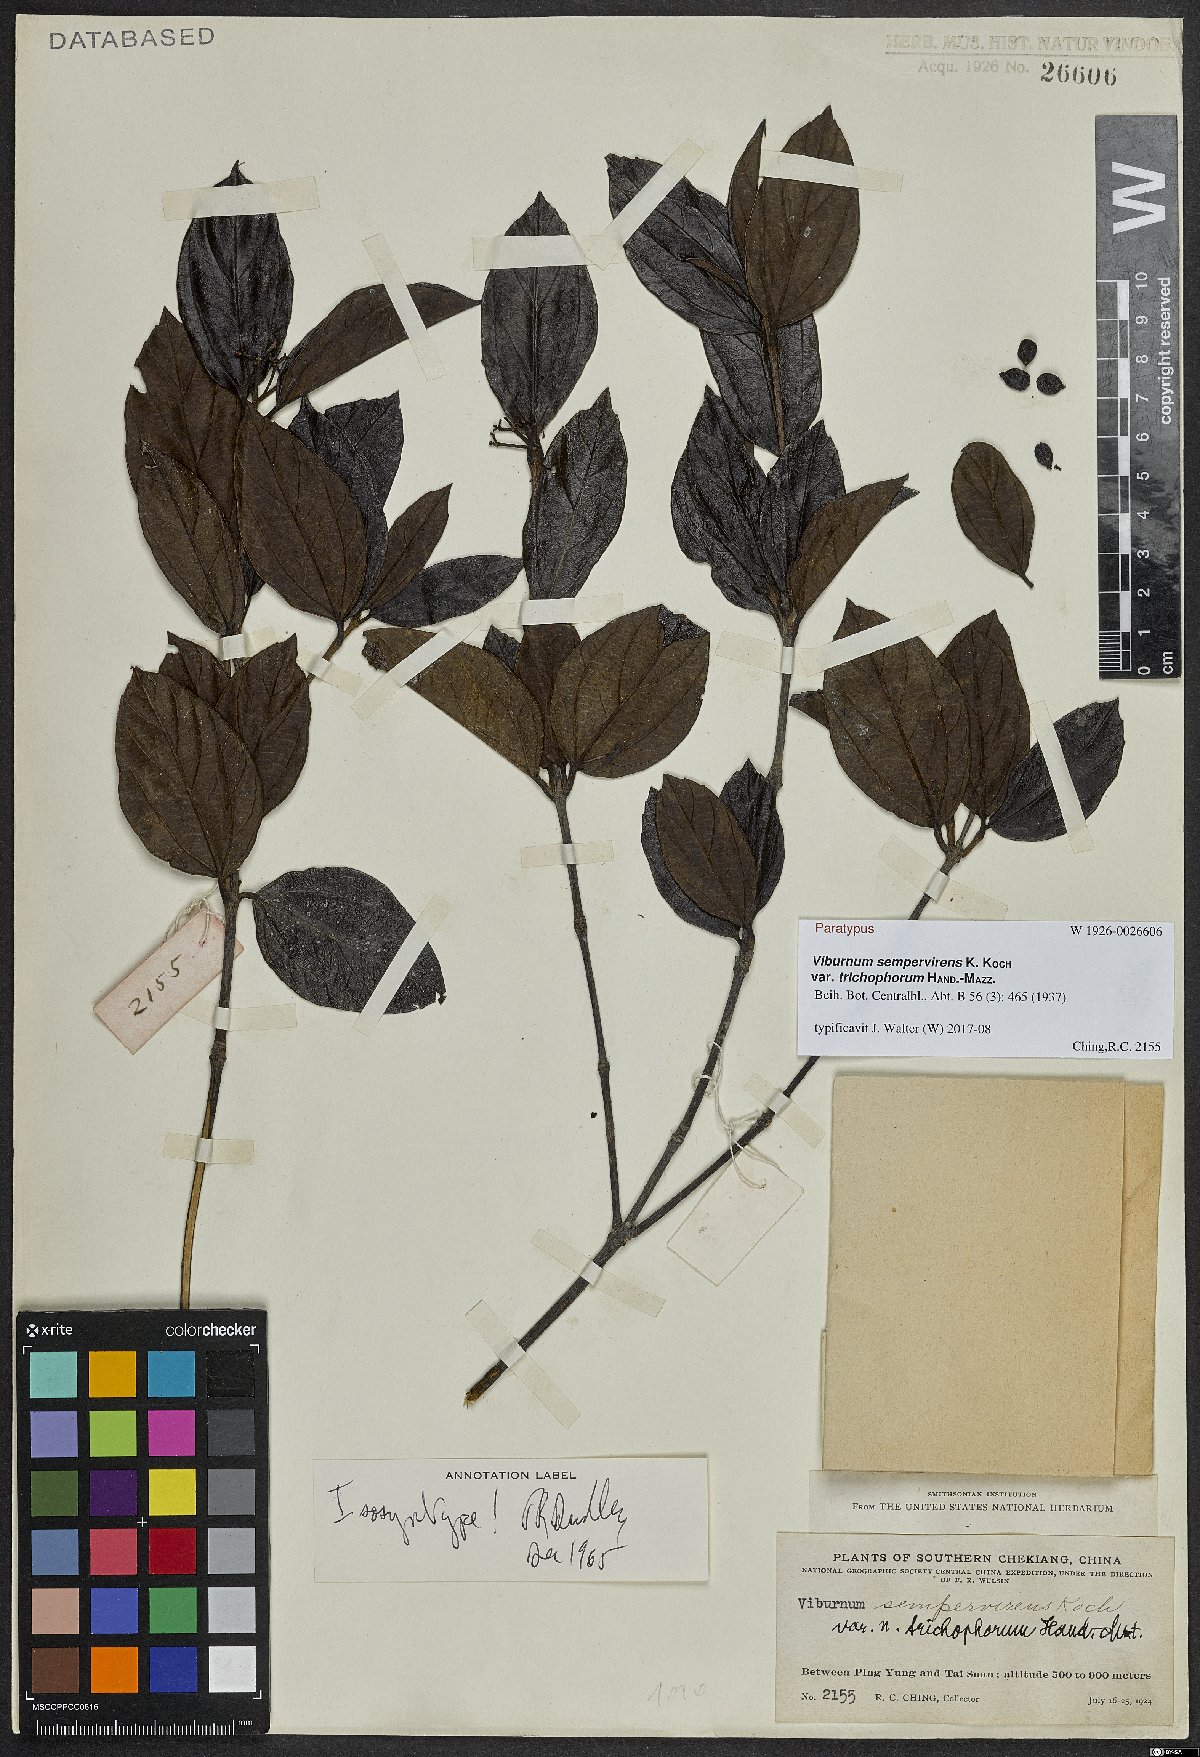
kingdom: Plantae
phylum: Tracheophyta
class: Magnoliopsida
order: Dipsacales
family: Viburnaceae
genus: Viburnum
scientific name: Viburnum sempervirens
